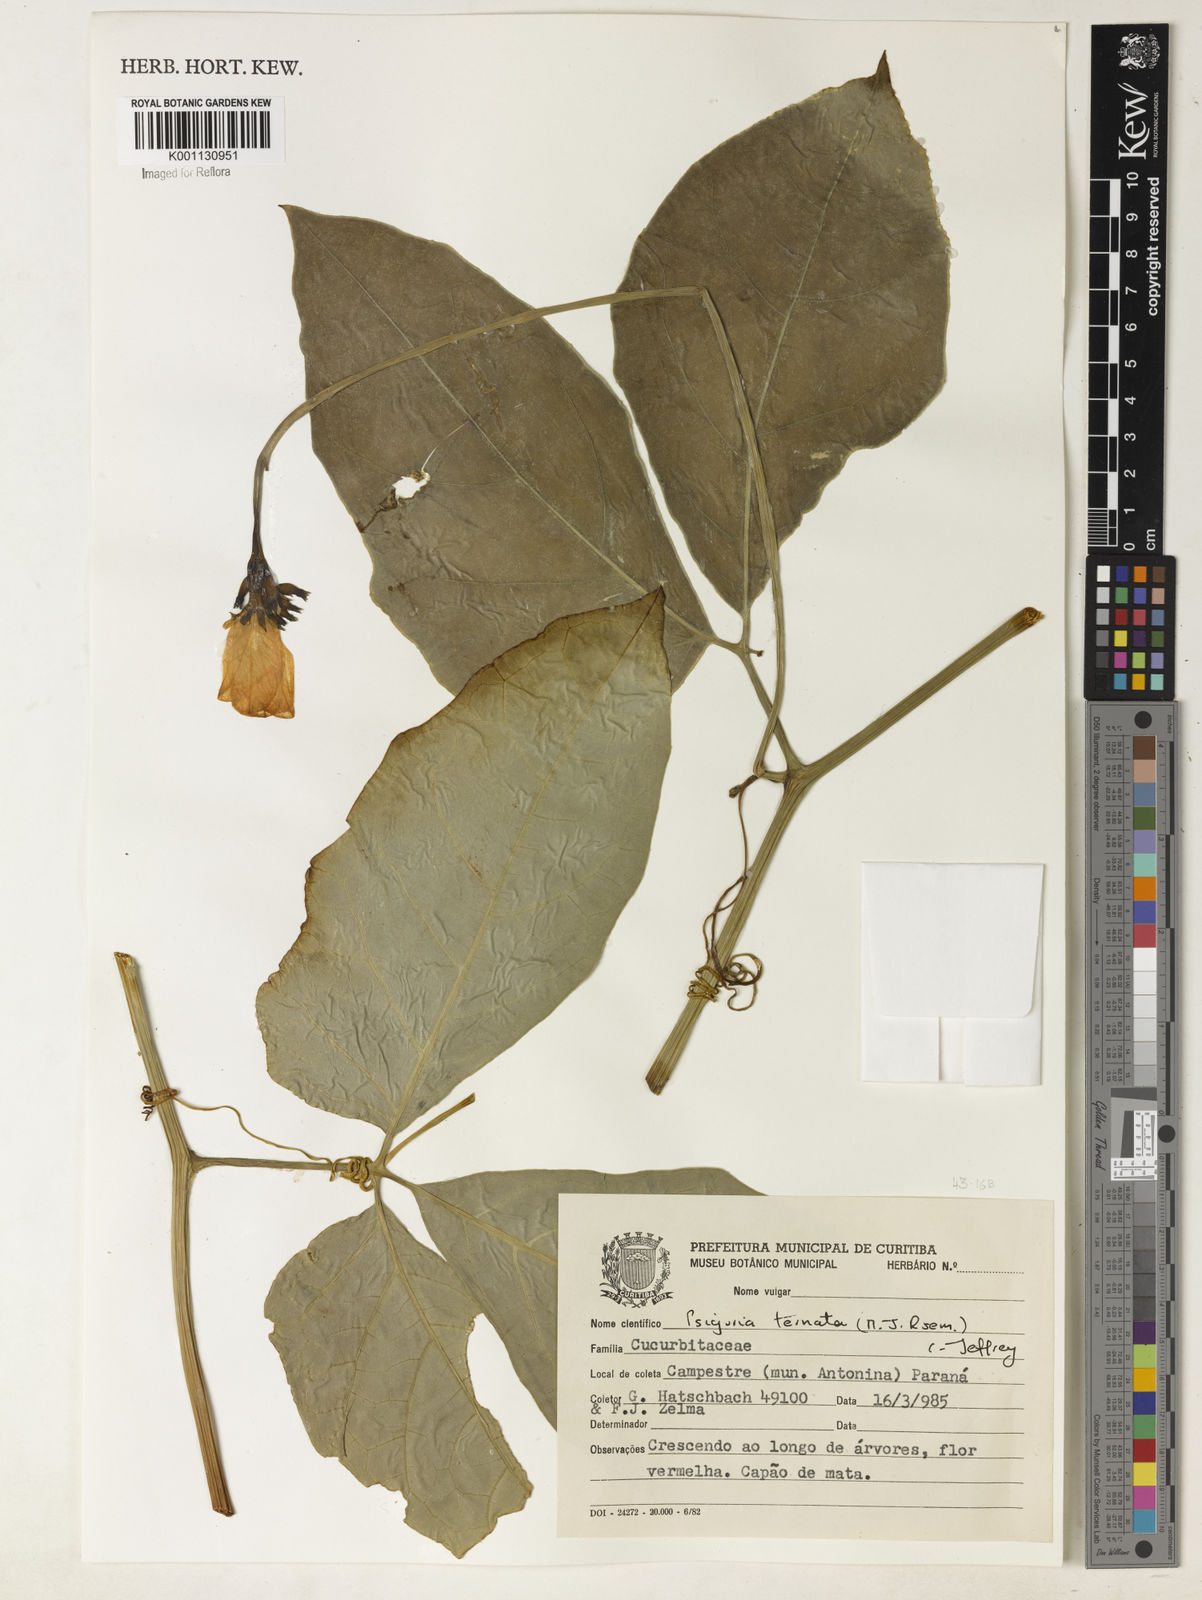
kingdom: Plantae
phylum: Tracheophyta
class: Magnoliopsida
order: Cucurbitales
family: Cucurbitaceae
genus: Psiguria
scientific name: Psiguria ternata
